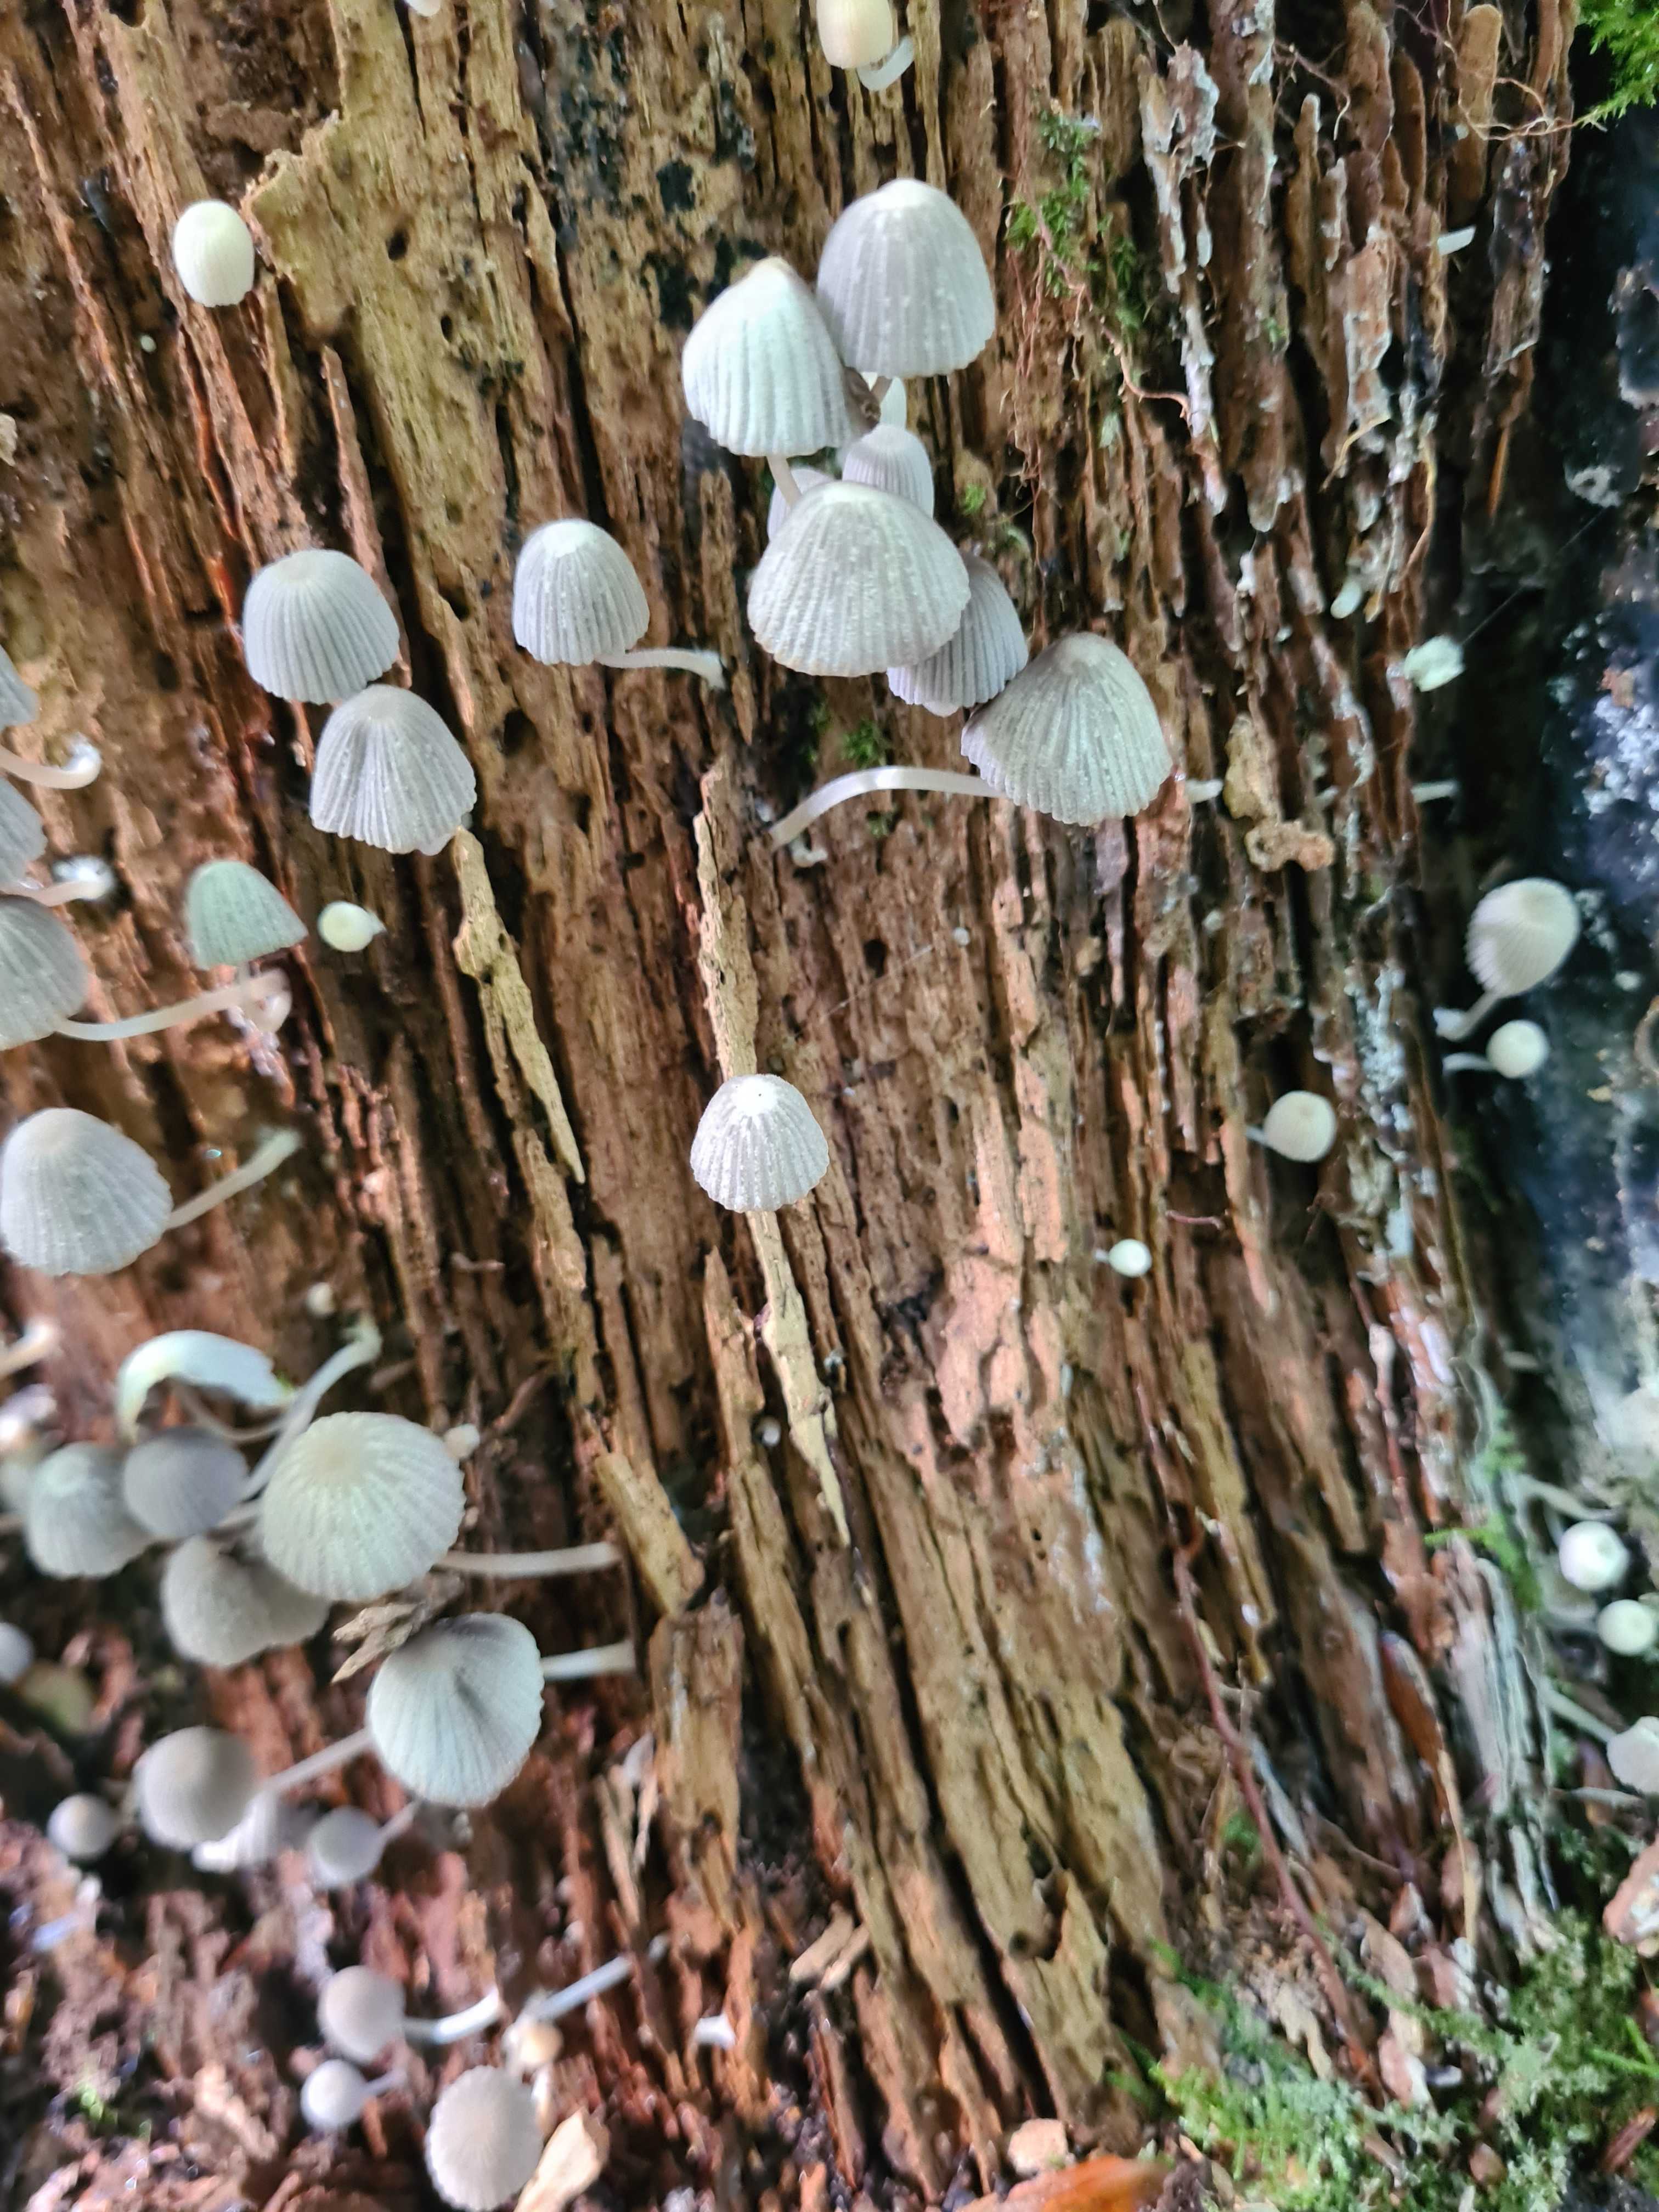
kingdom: Fungi
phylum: Basidiomycota
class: Agaricomycetes
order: Agaricales
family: Psathyrellaceae
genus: Coprinellus
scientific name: Coprinellus disseminatus
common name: bredsået blækhat
